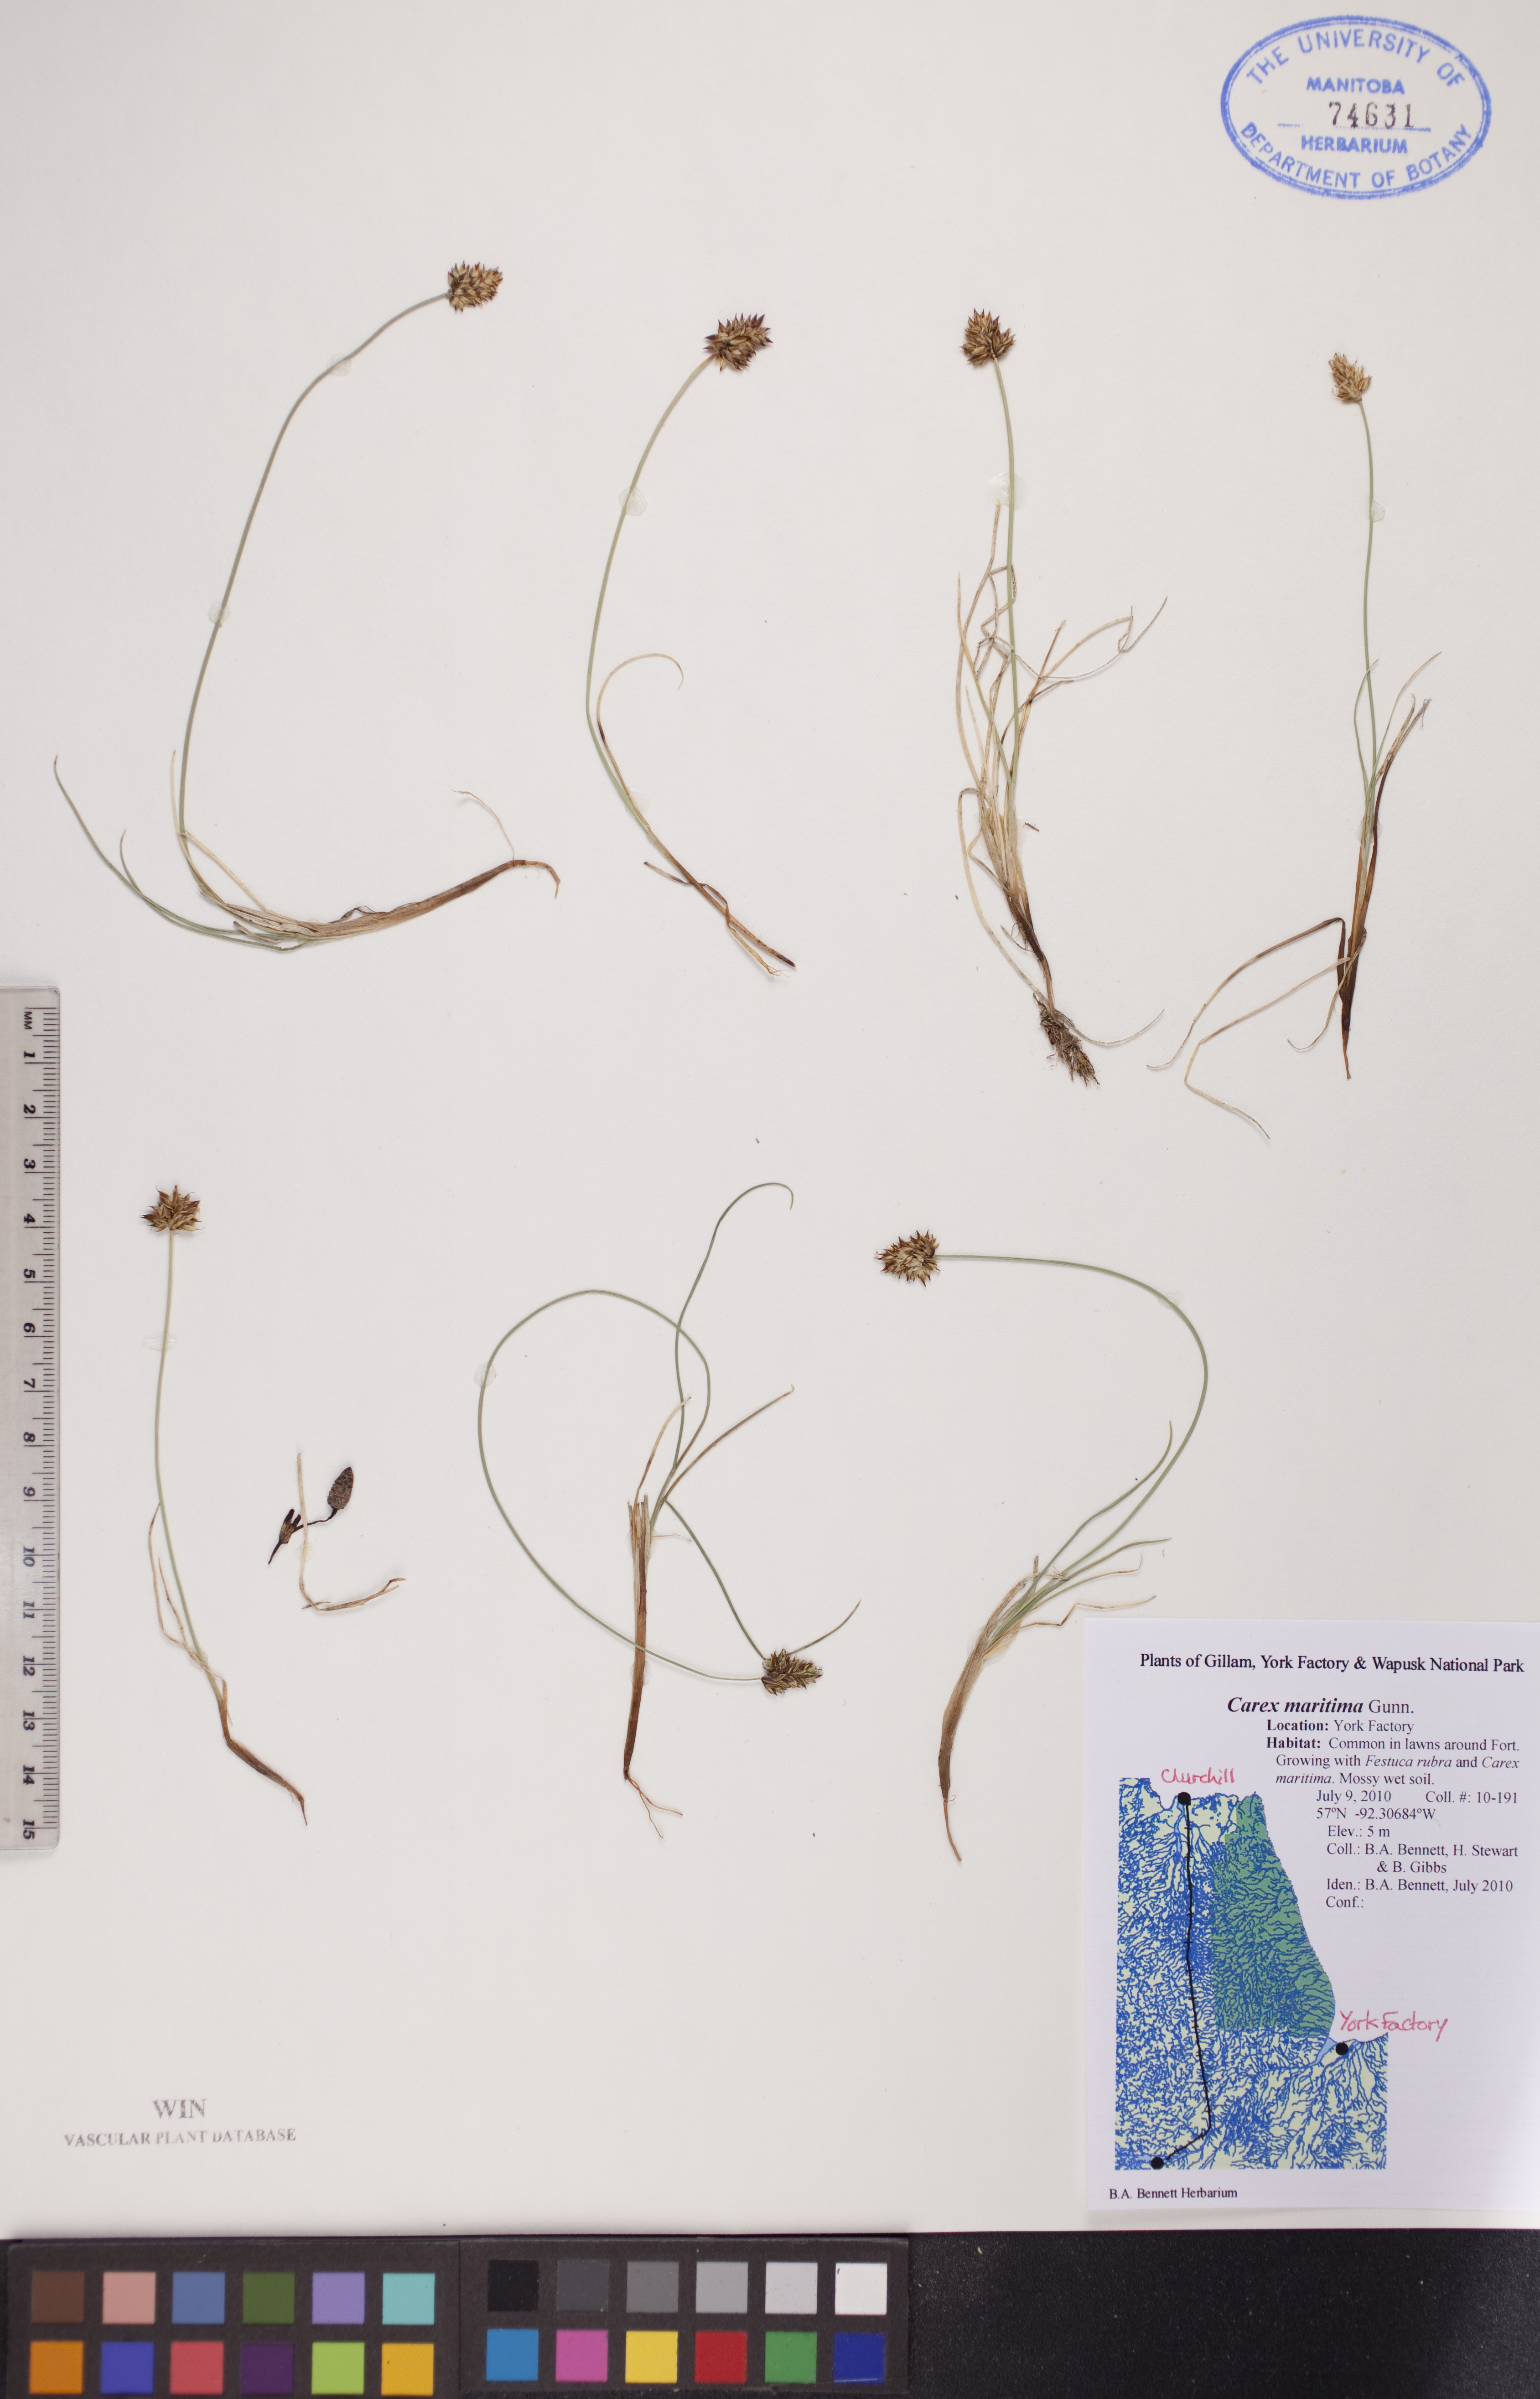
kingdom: Plantae
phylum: Tracheophyta
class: Liliopsida
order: Poales
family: Cyperaceae
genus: Carex
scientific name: Carex maritima
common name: Curved sedge
